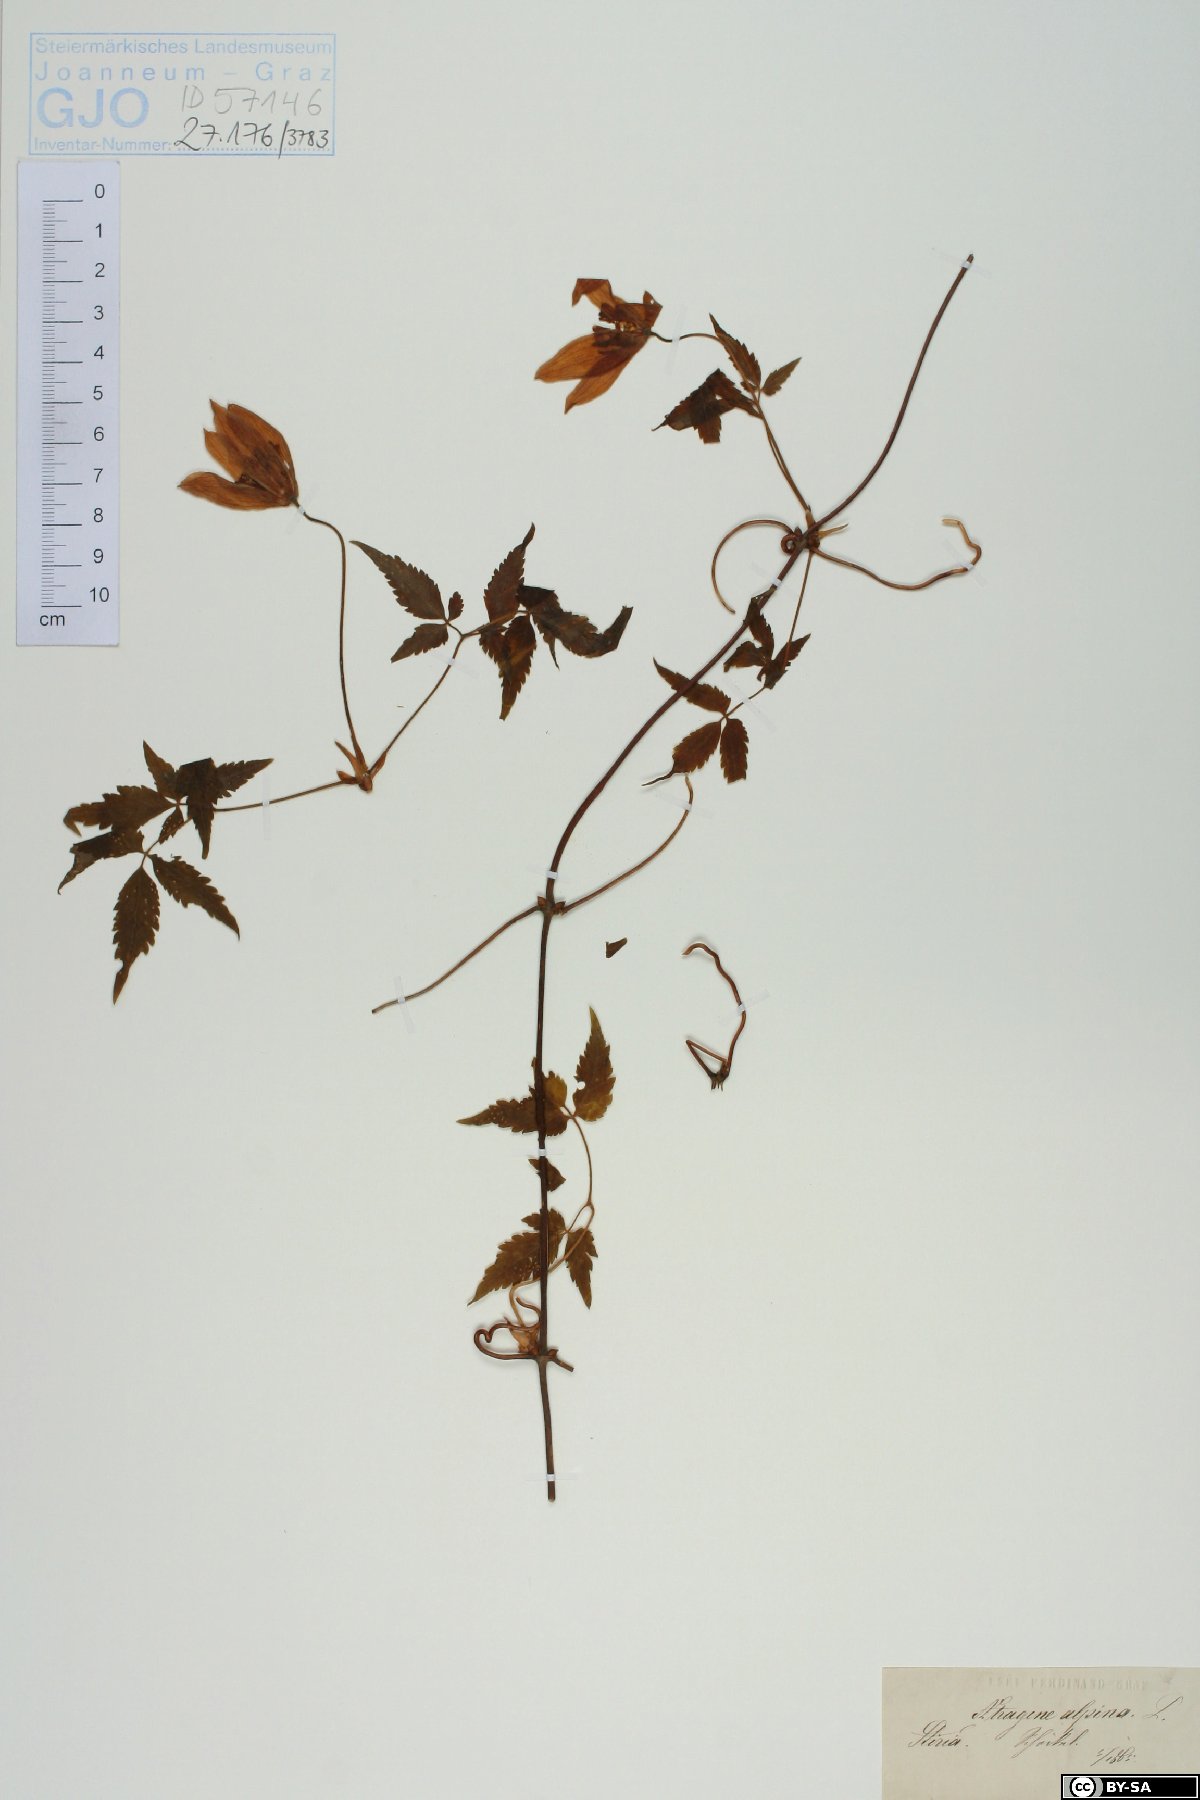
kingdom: Plantae
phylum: Tracheophyta
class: Magnoliopsida
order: Ranunculales
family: Ranunculaceae
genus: Clematis
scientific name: Clematis alpina
